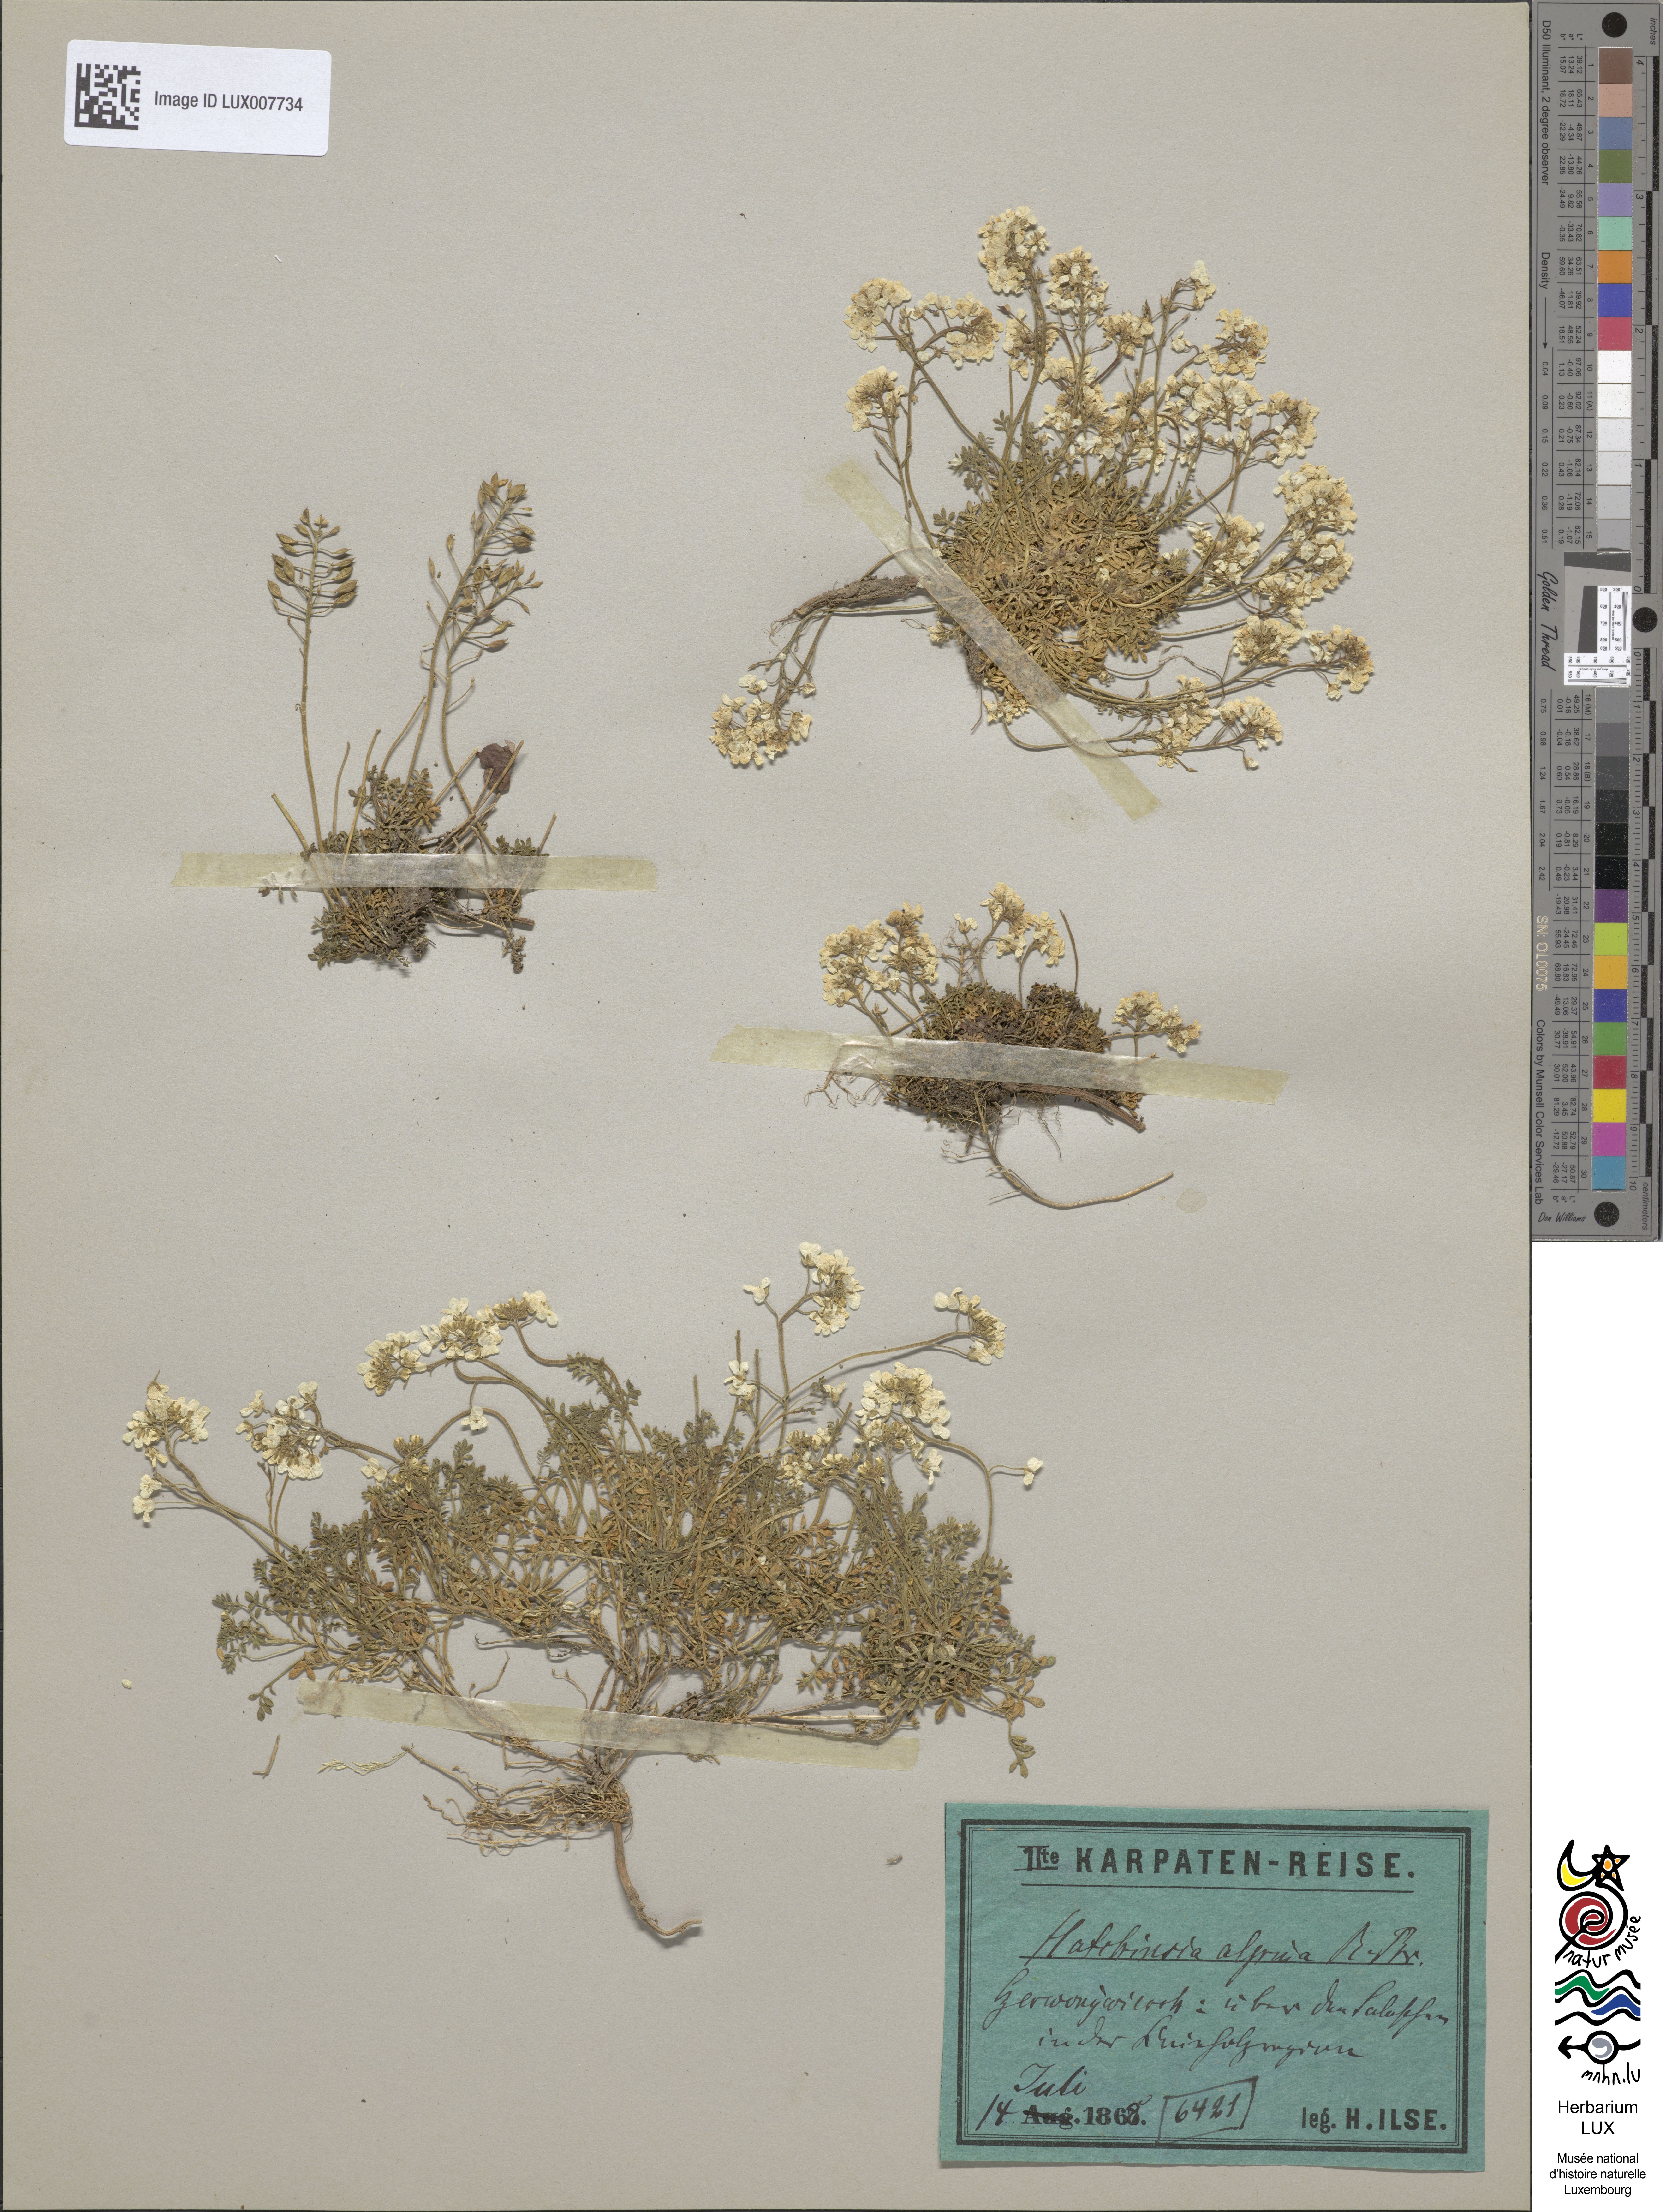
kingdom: Plantae
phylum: Tracheophyta
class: Magnoliopsida
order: Brassicales
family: Brassicaceae
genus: Hornungia
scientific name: Hornungia alpina
